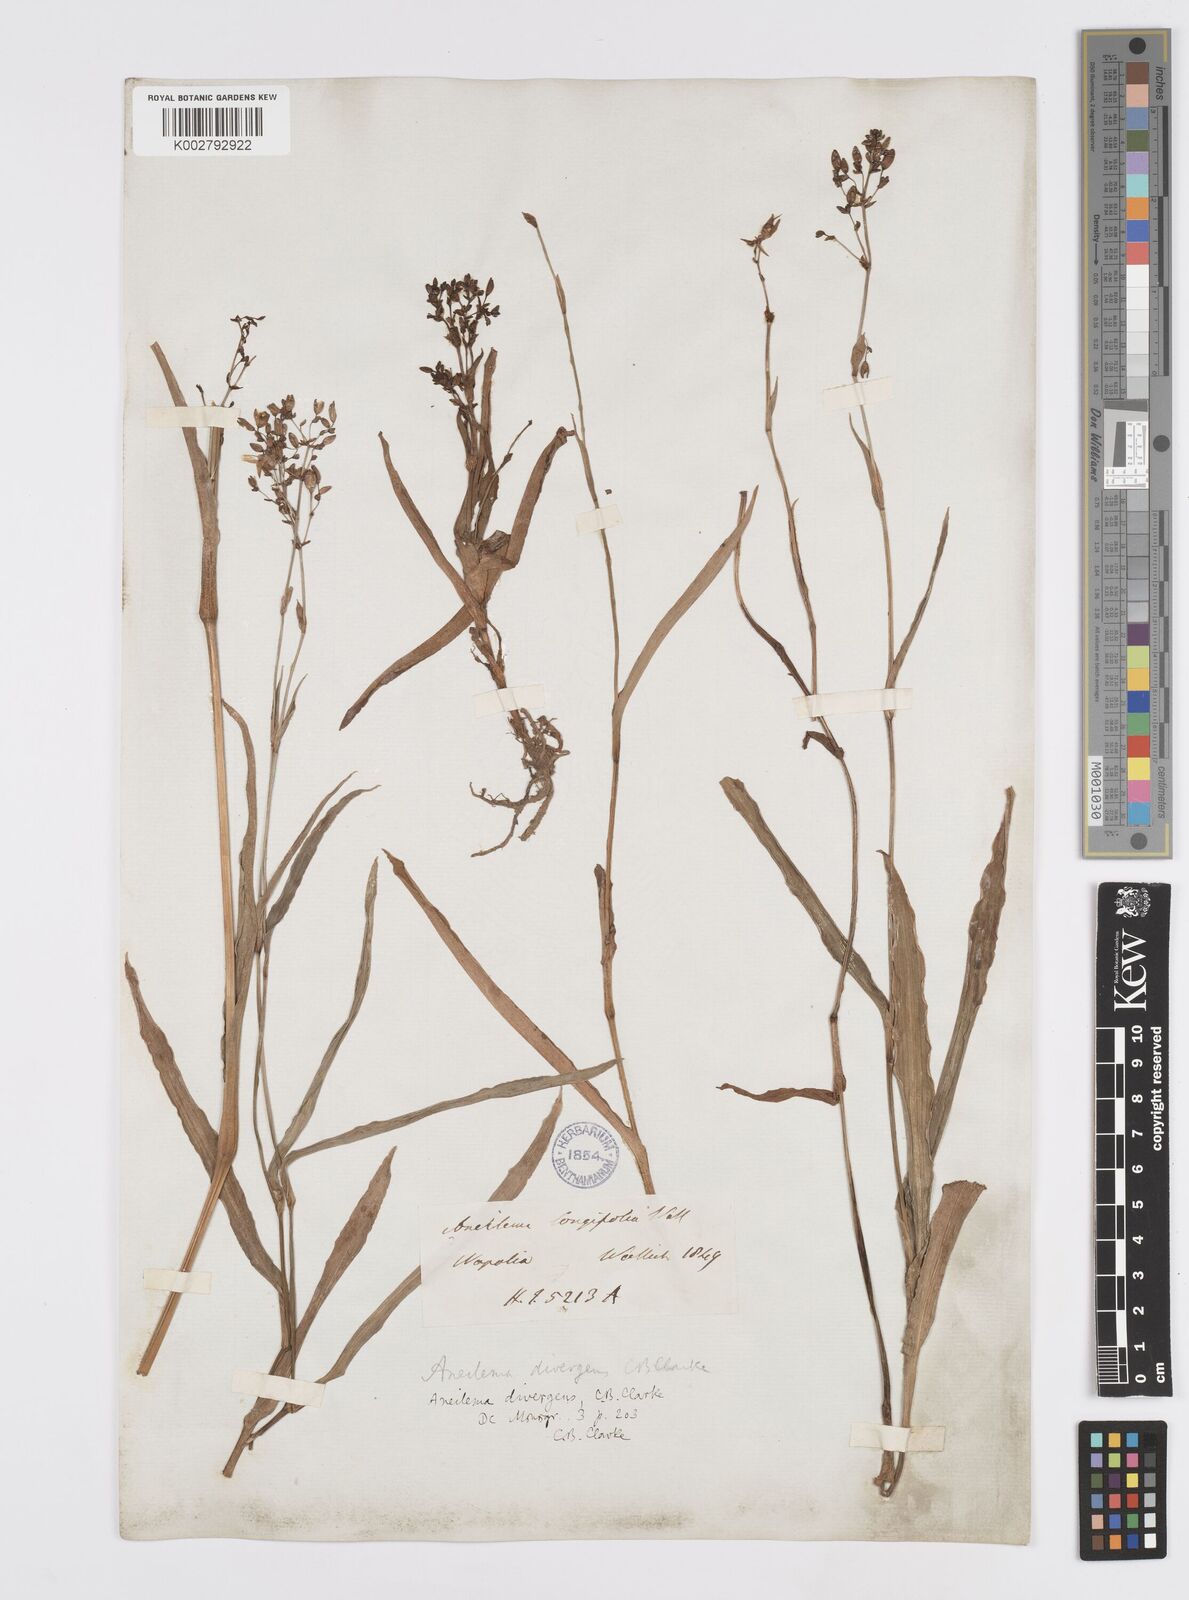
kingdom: Plantae
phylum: Tracheophyta
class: Liliopsida
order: Commelinales
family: Commelinaceae
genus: Murdannia
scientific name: Murdannia divergens
